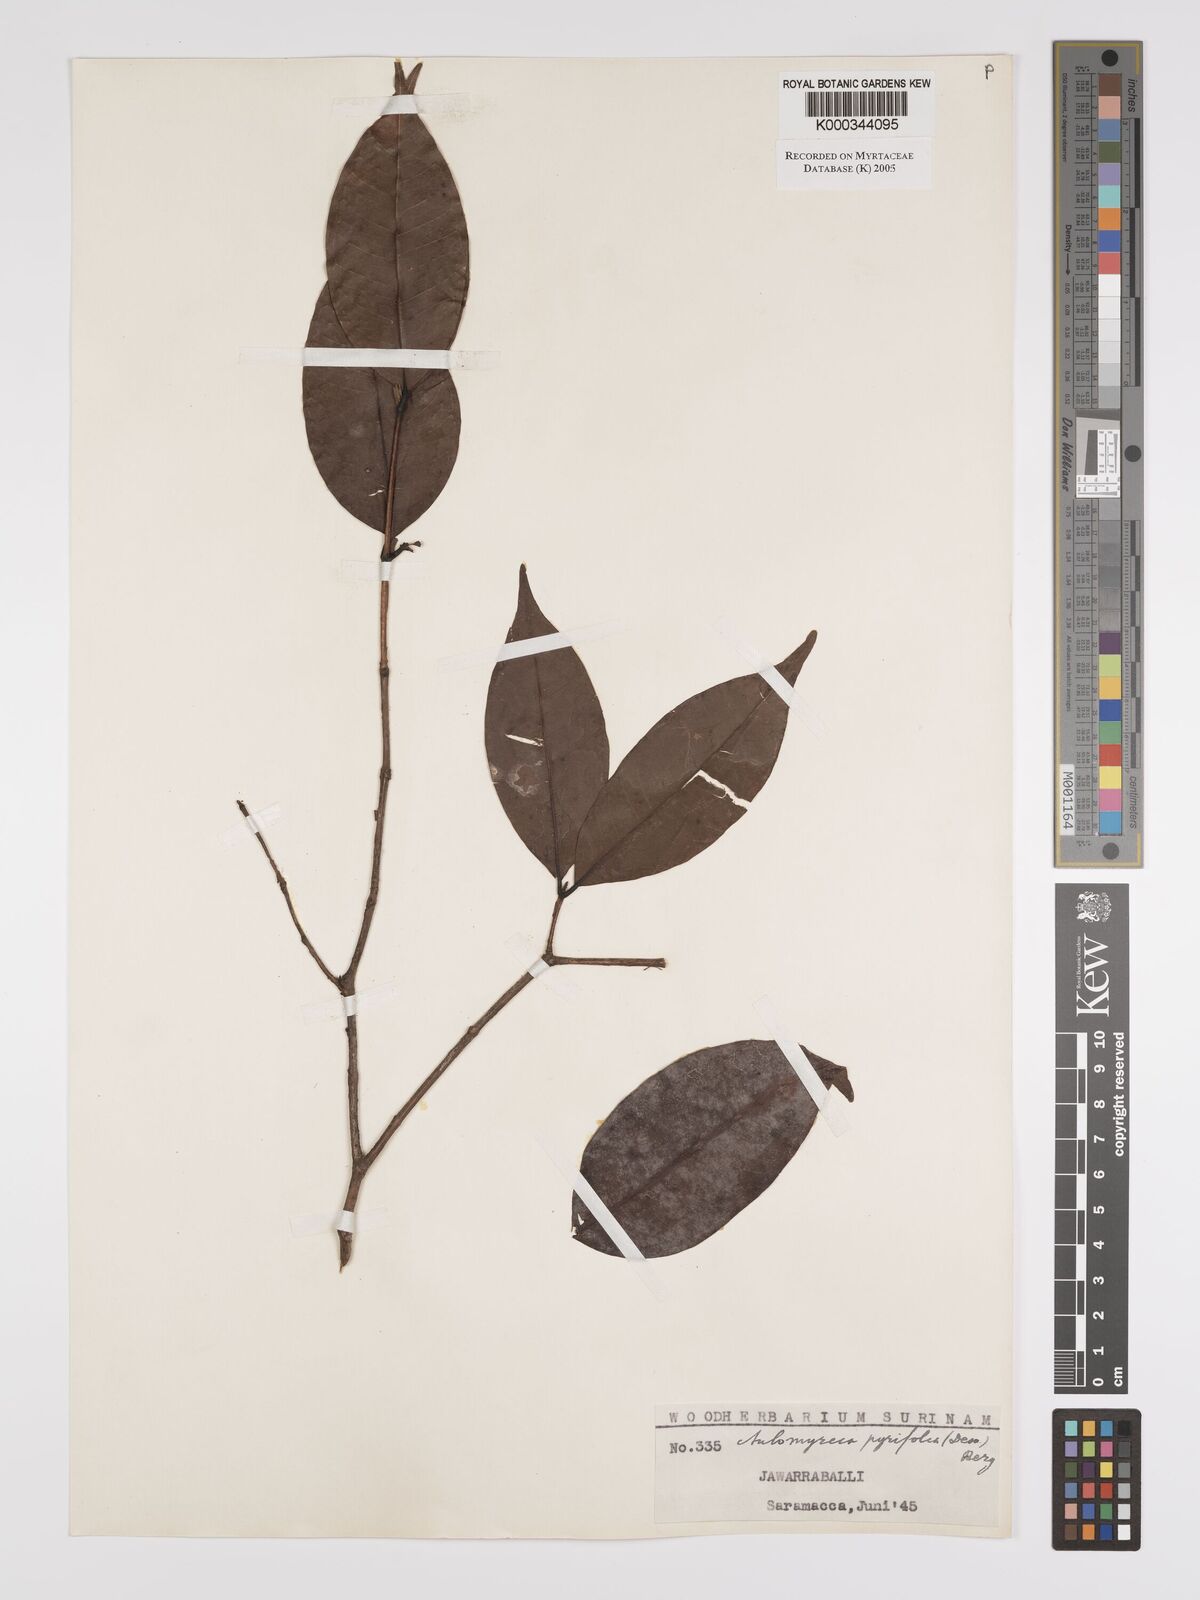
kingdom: Plantae
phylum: Tracheophyta
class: Magnoliopsida
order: Myrtales
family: Myrtaceae
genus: Myrcia
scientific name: Myrcia pyrifolia
